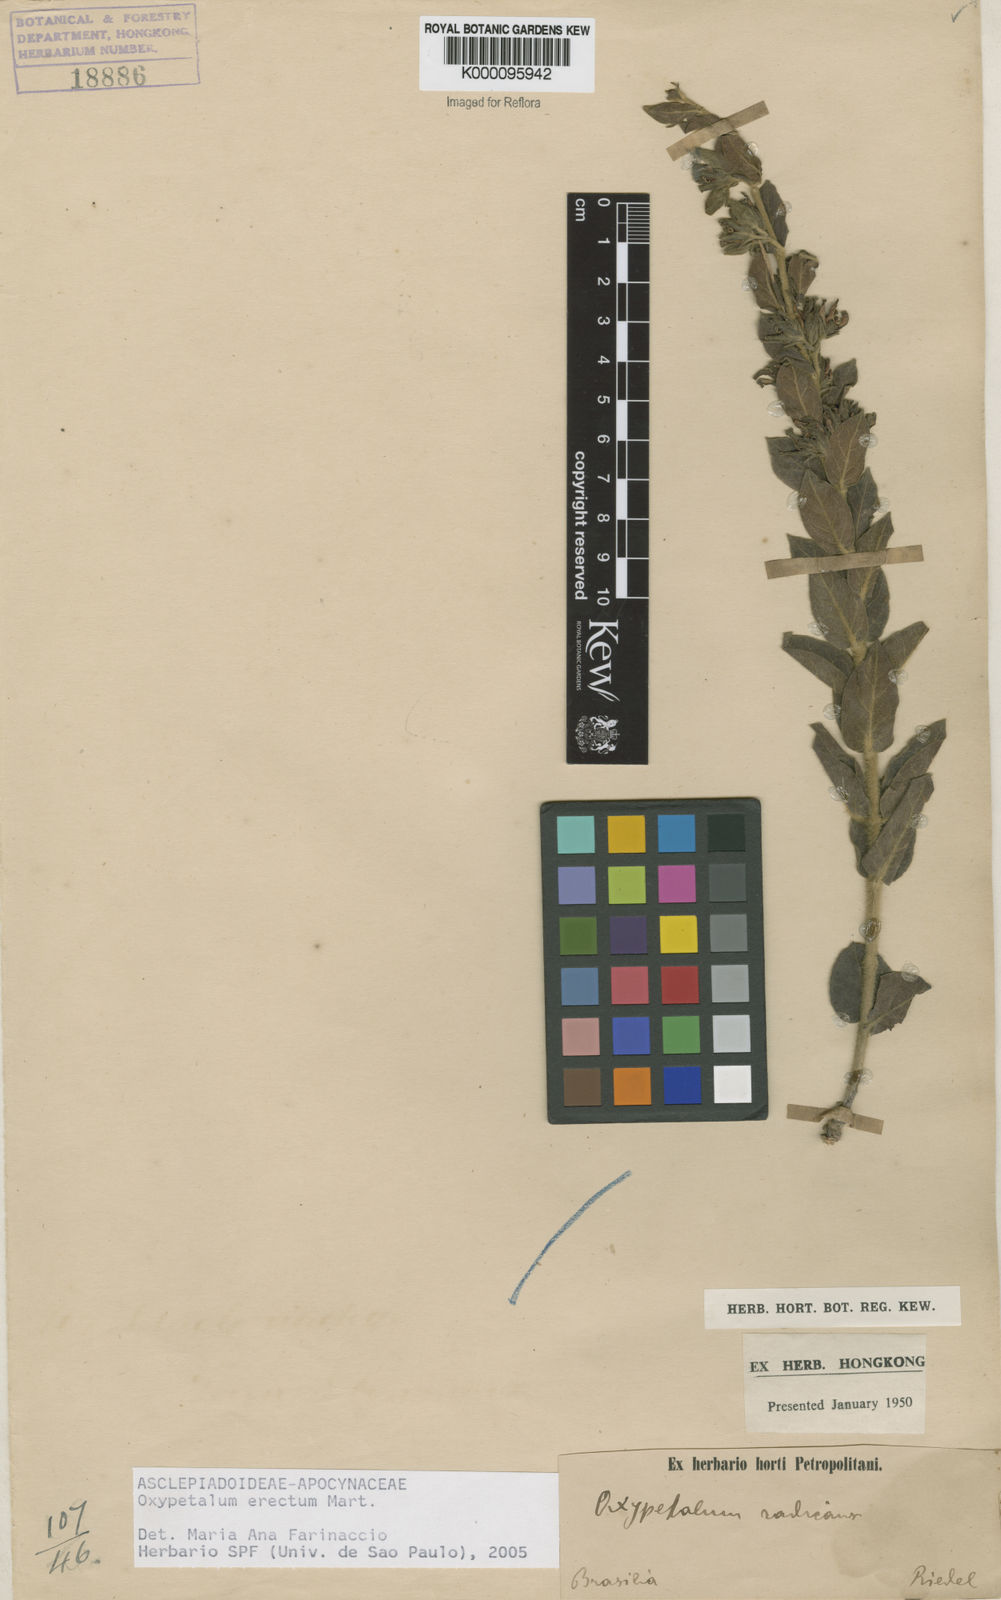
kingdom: Plantae
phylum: Tracheophyta
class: Magnoliopsida
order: Gentianales
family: Apocynaceae
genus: Oxypetalum
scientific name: Oxypetalum
